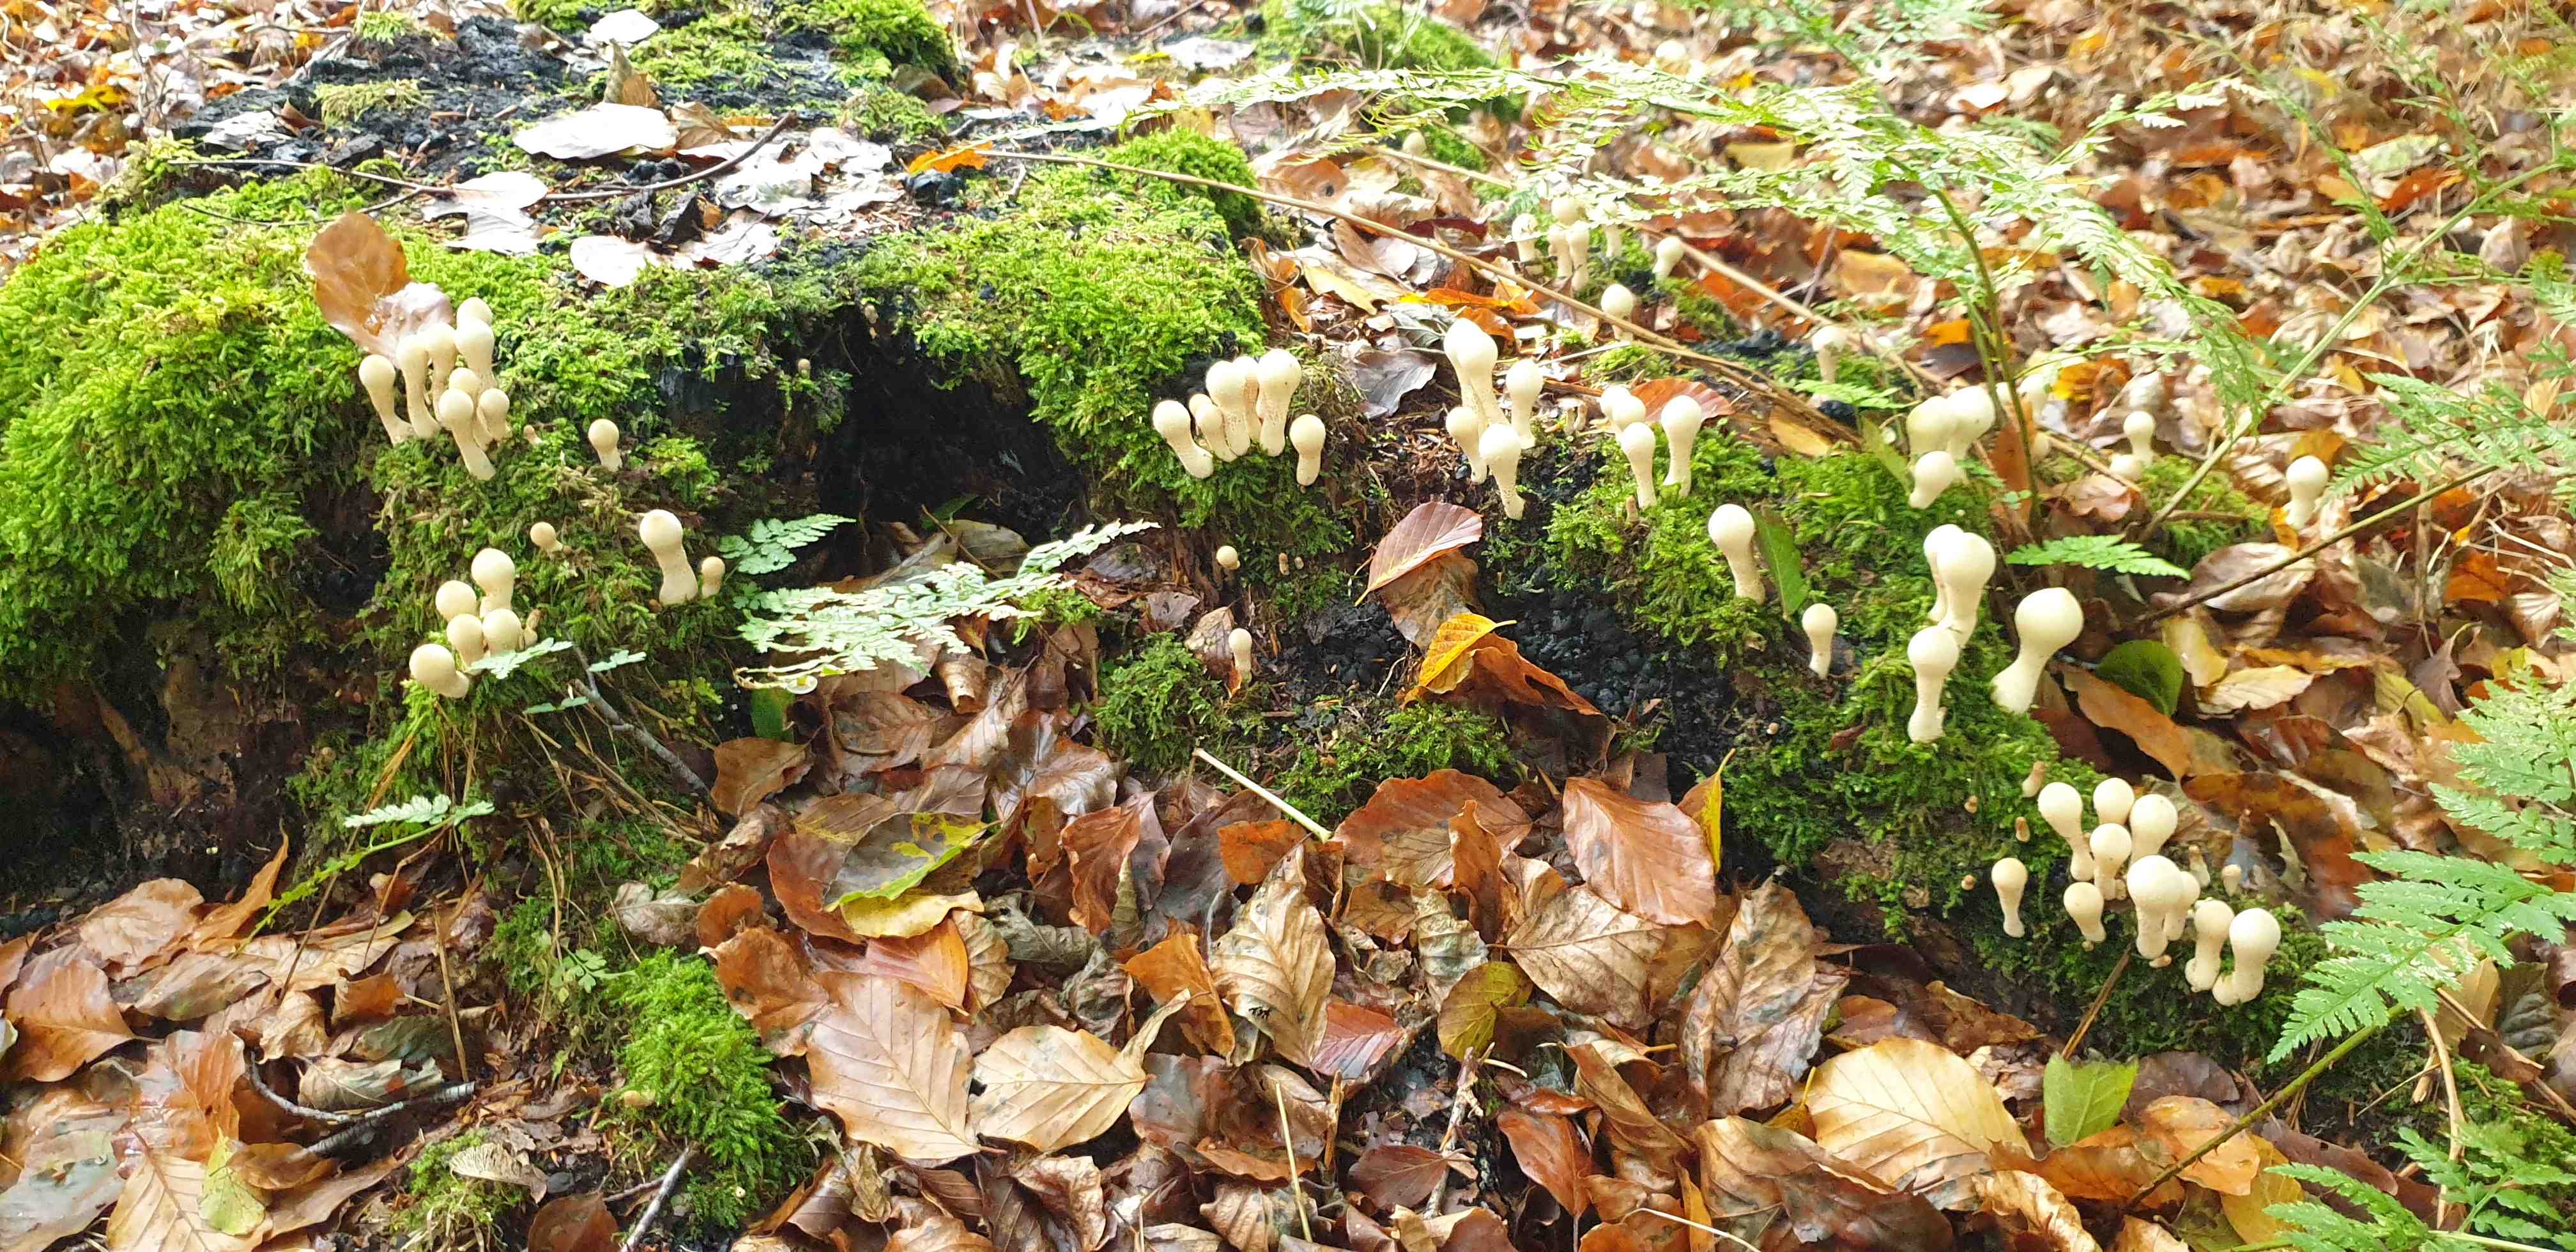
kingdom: Fungi
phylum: Basidiomycota
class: Agaricomycetes
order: Agaricales
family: Lycoperdaceae
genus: Apioperdon
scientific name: Apioperdon pyriforme
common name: pære-støvbold
